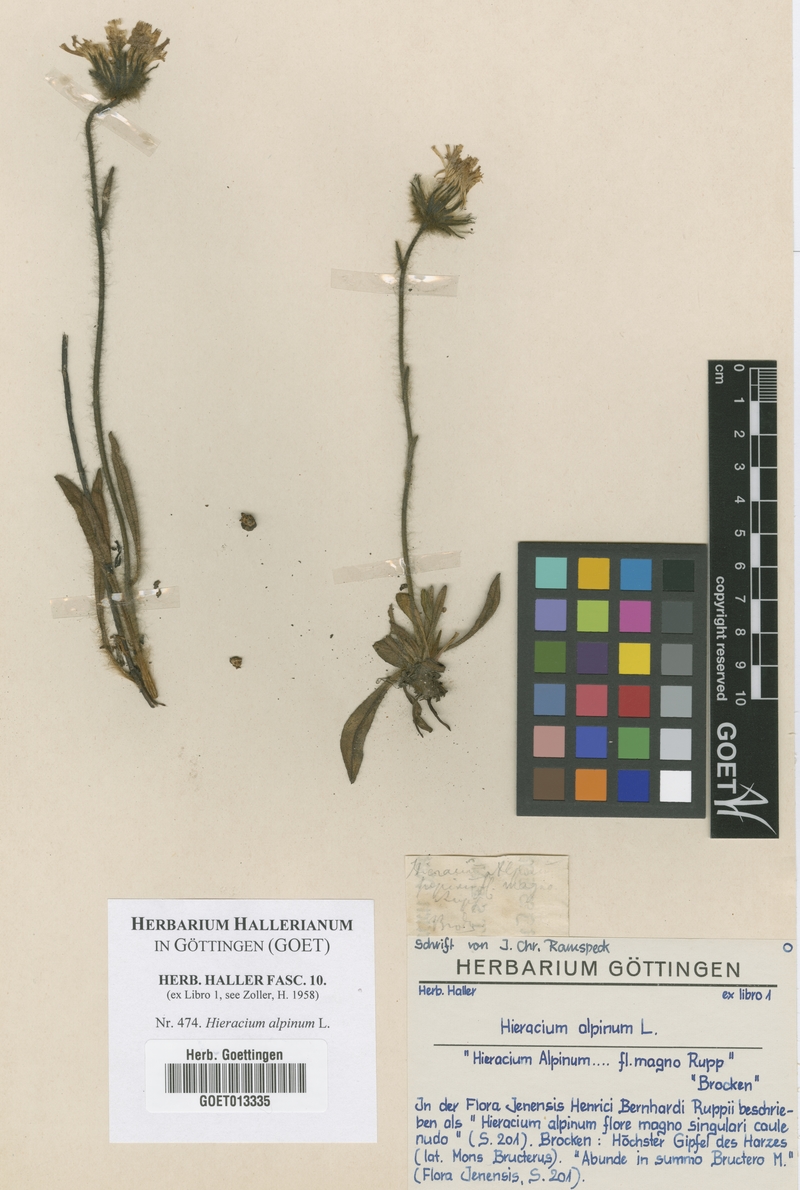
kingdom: Plantae
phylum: Tracheophyta
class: Magnoliopsida
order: Asterales
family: Asteraceae
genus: Hieracium
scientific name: Hieracium alpinum
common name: Alpine hawkweed
